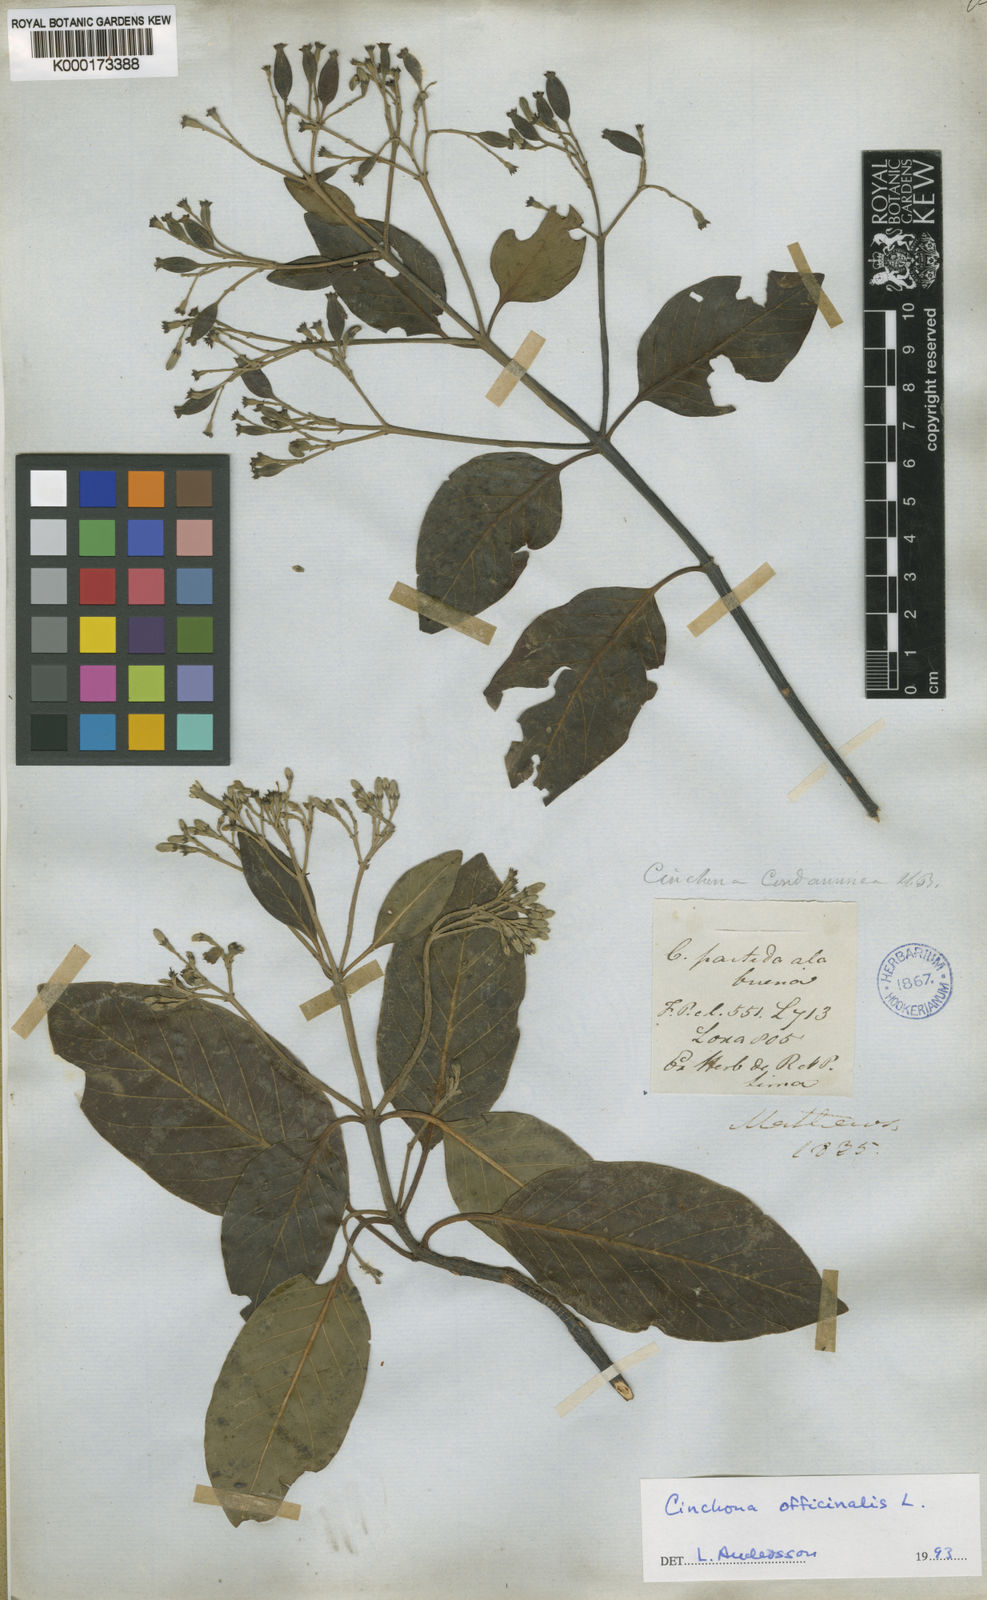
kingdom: Plantae
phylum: Tracheophyta
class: Magnoliopsida
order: Gentianales
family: Rubiaceae
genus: Cinchona
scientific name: Cinchona officinalis
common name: Lojabark
